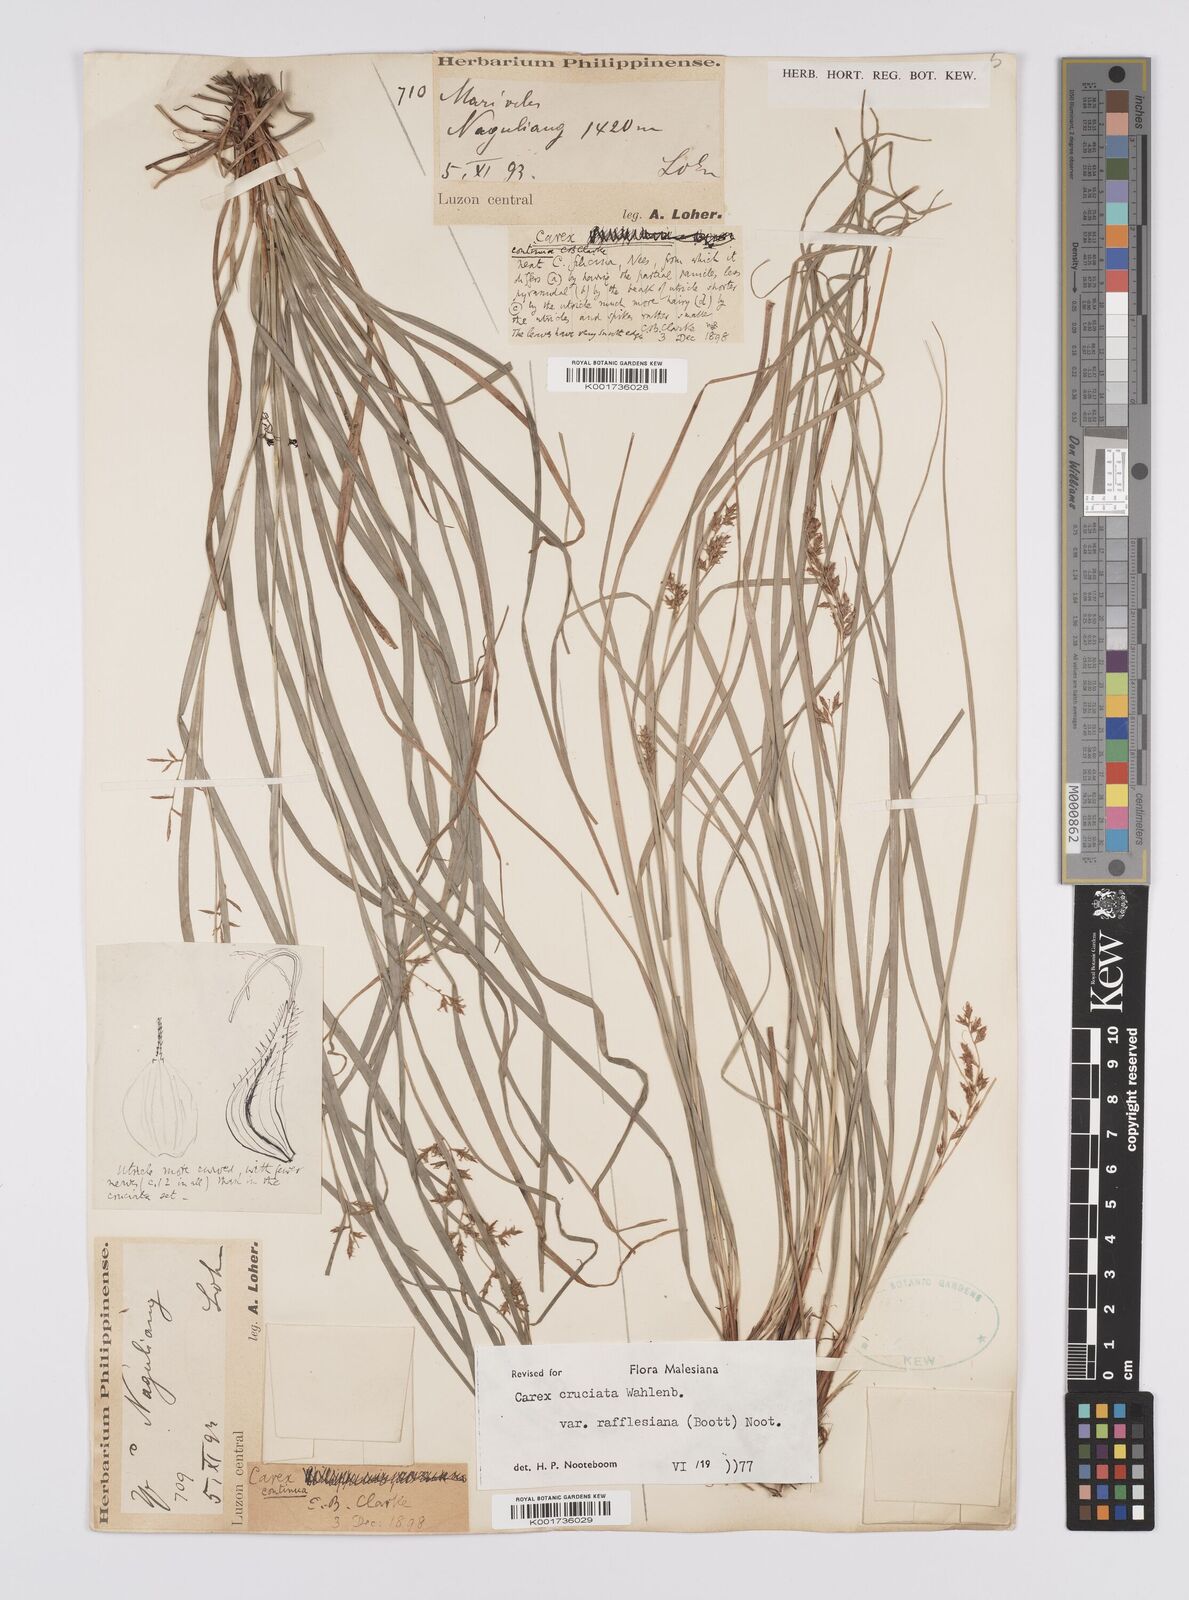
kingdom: Plantae
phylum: Tracheophyta
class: Liliopsida
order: Poales
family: Cyperaceae
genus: Carex
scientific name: Carex rafflesiana
